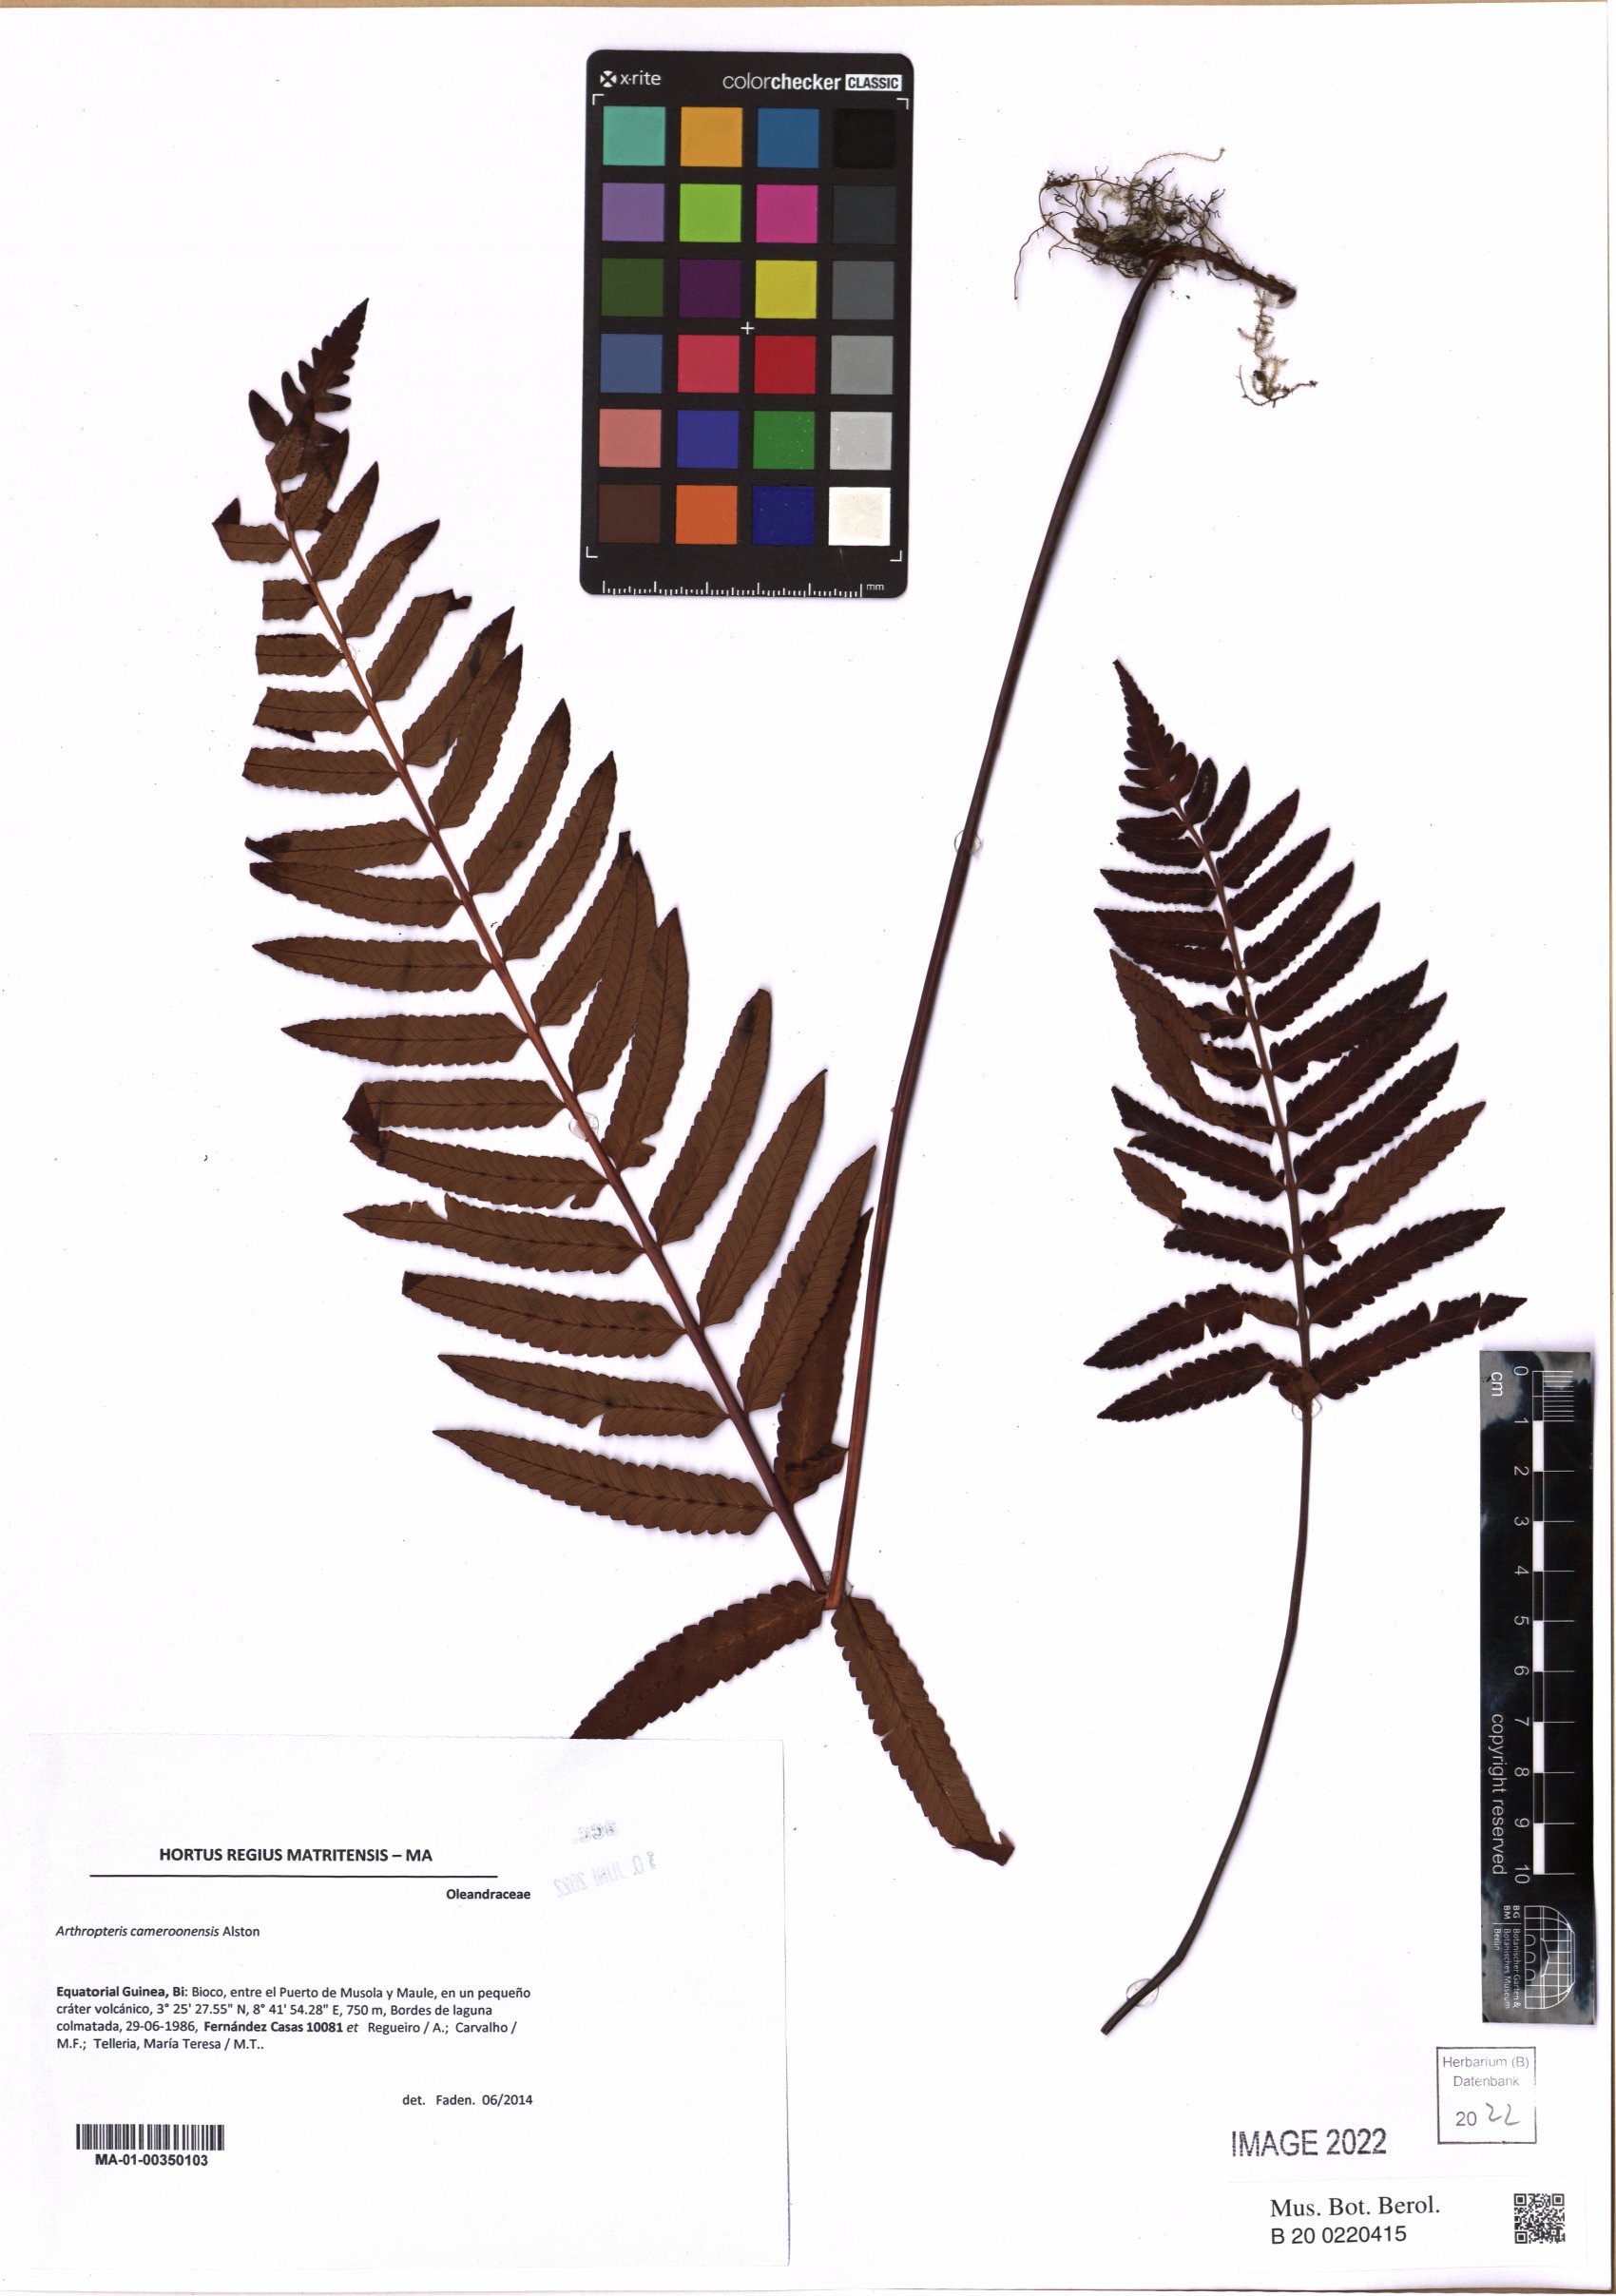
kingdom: Plantae
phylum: Tracheophyta
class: Polypodiopsida
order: Polypodiales
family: Tectariaceae
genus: Arthropteris
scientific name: Arthropteris cameroonensis
